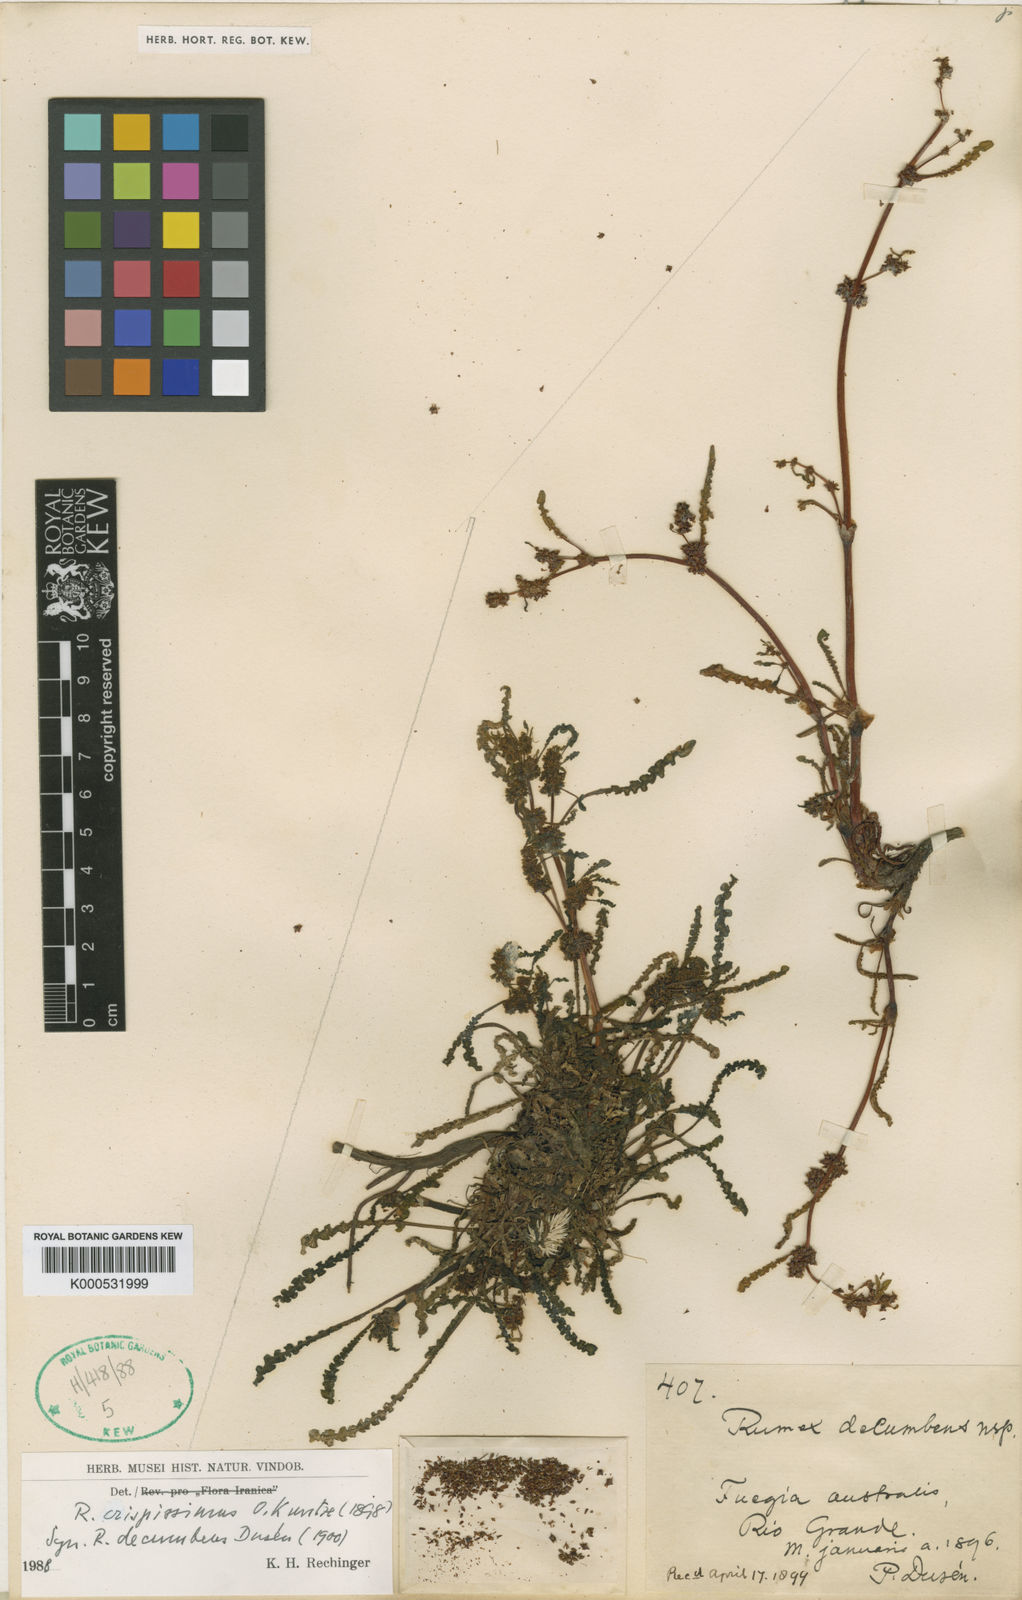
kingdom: Plantae
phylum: Tracheophyta
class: Magnoliopsida
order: Caryophyllales
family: Polygonaceae
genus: Rumex
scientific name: Rumex crispissimus
